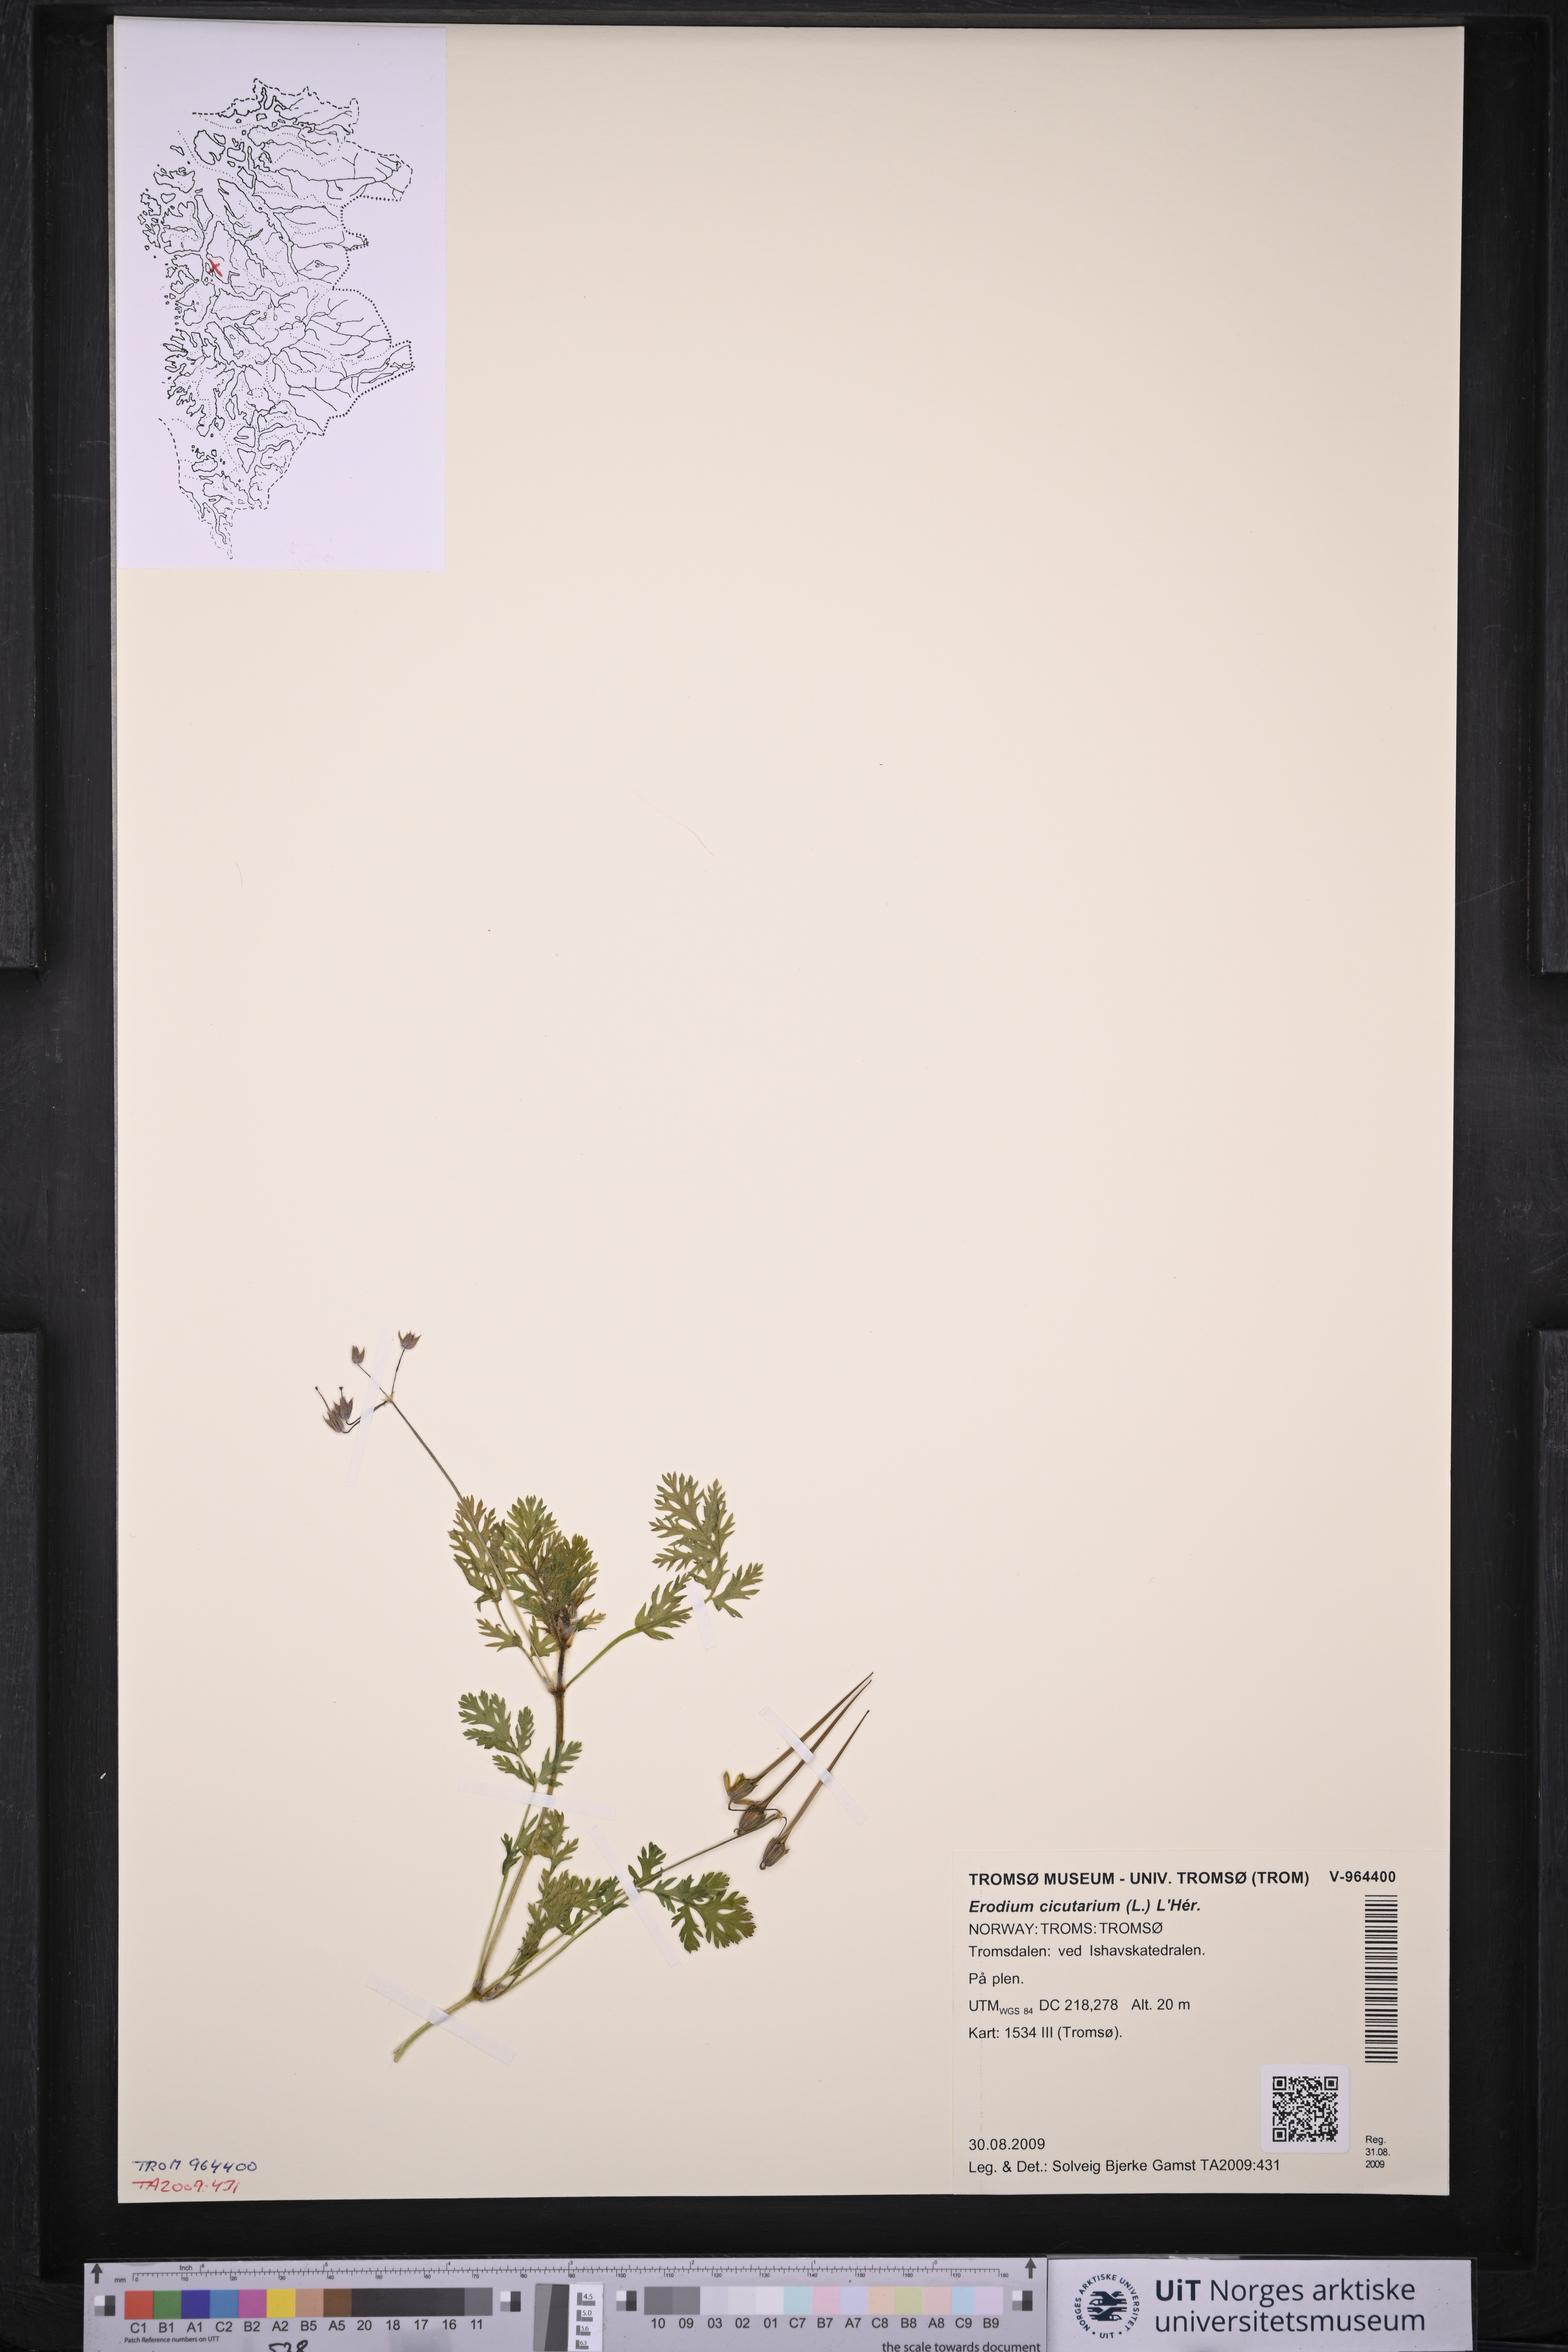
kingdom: Plantae
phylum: Tracheophyta
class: Magnoliopsida
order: Geraniales
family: Geraniaceae
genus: Erodium
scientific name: Erodium cicutarium
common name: Common stork's-bill
